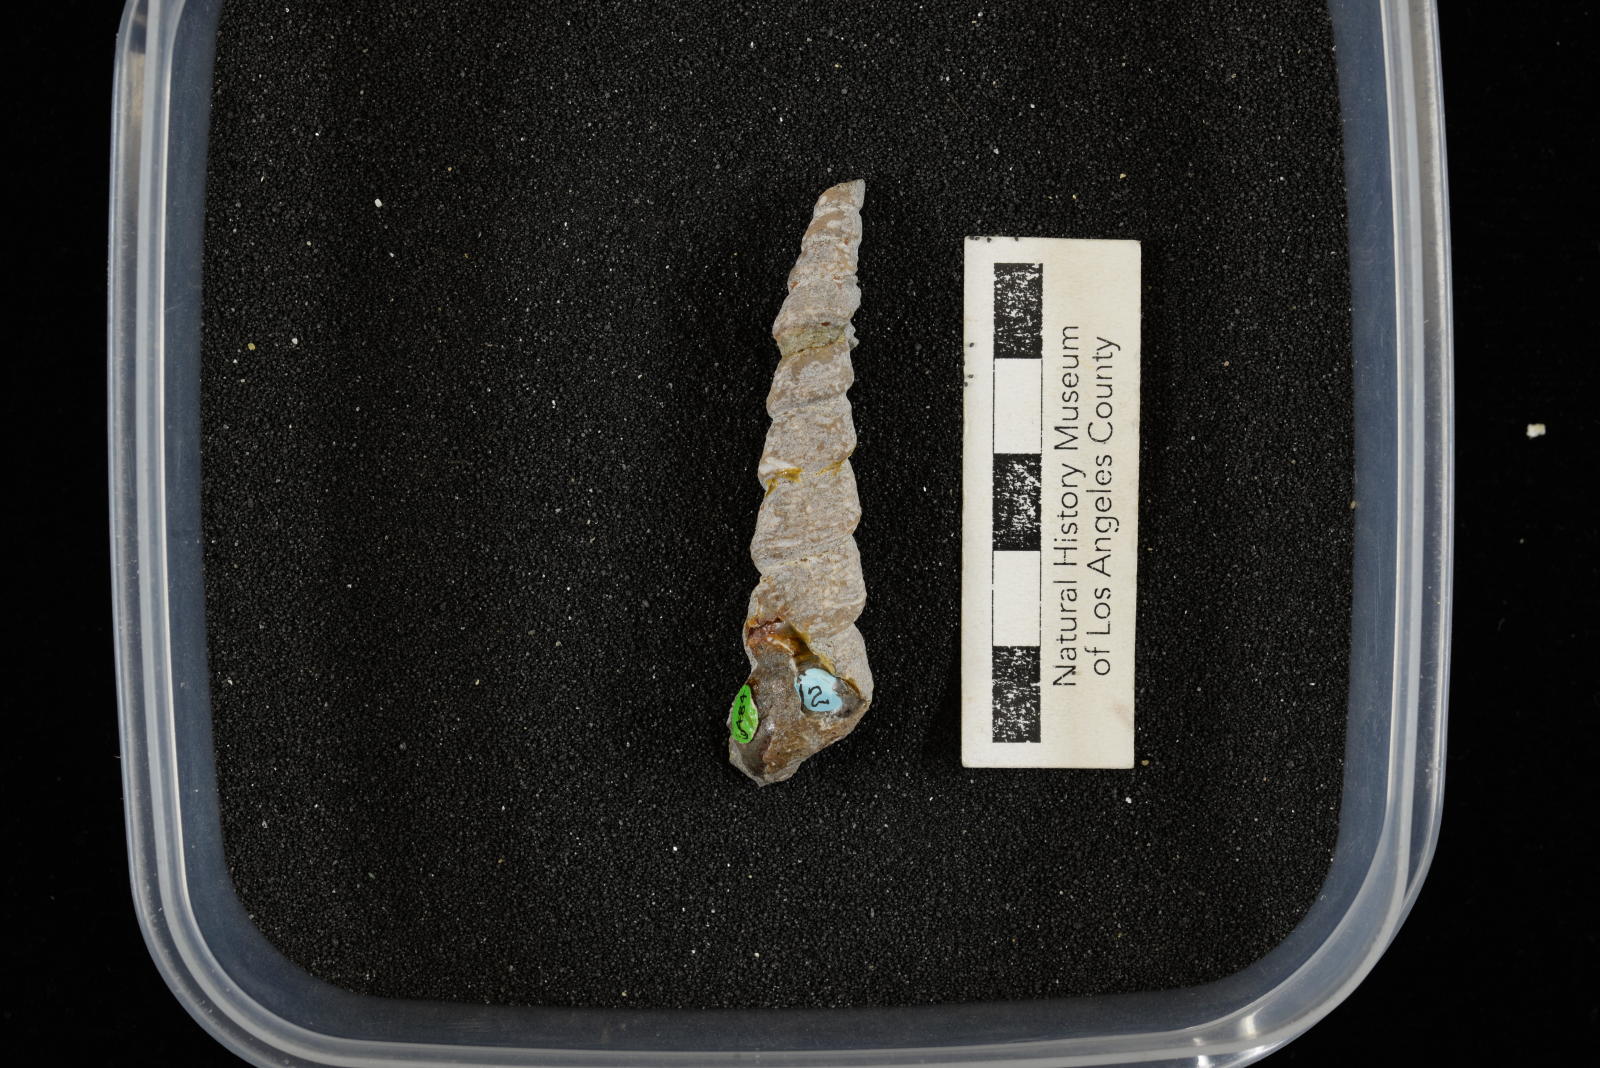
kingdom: Animalia
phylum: Mollusca
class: Gastropoda
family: Turritellidae
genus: Turritella
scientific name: Turritella chaneyi
